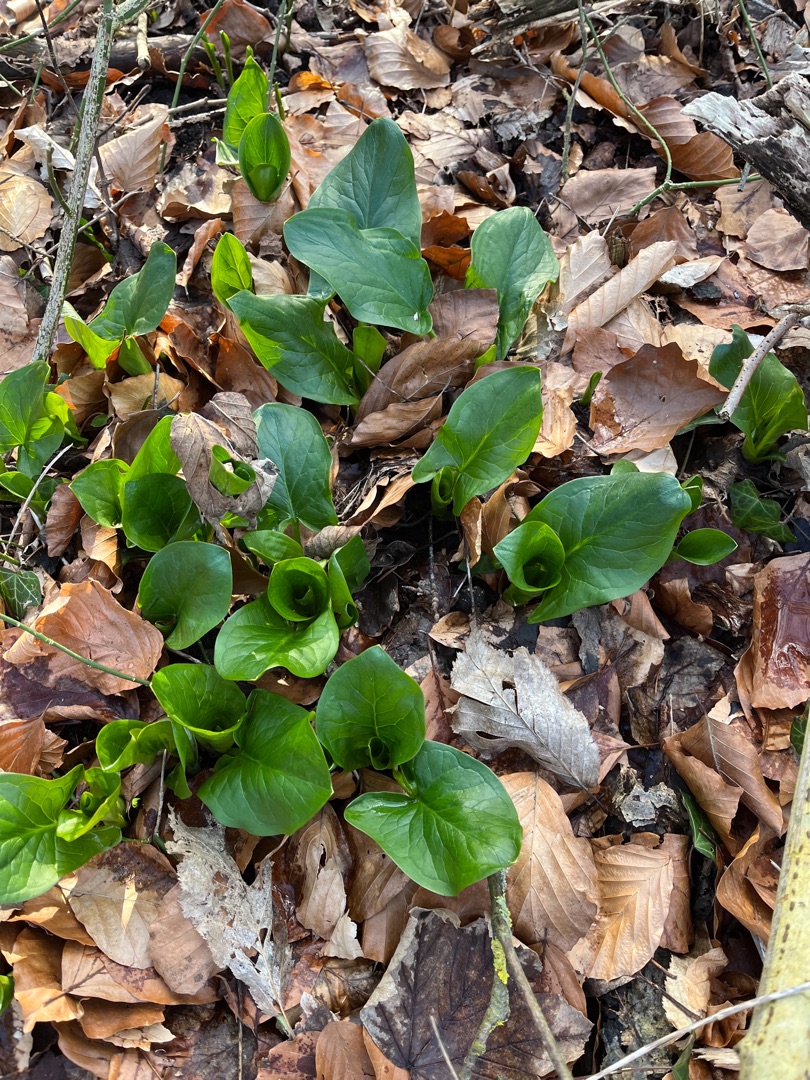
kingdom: Plantae
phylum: Tracheophyta
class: Liliopsida
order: Alismatales
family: Araceae
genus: Arum
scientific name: Arum
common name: Arumslægten
